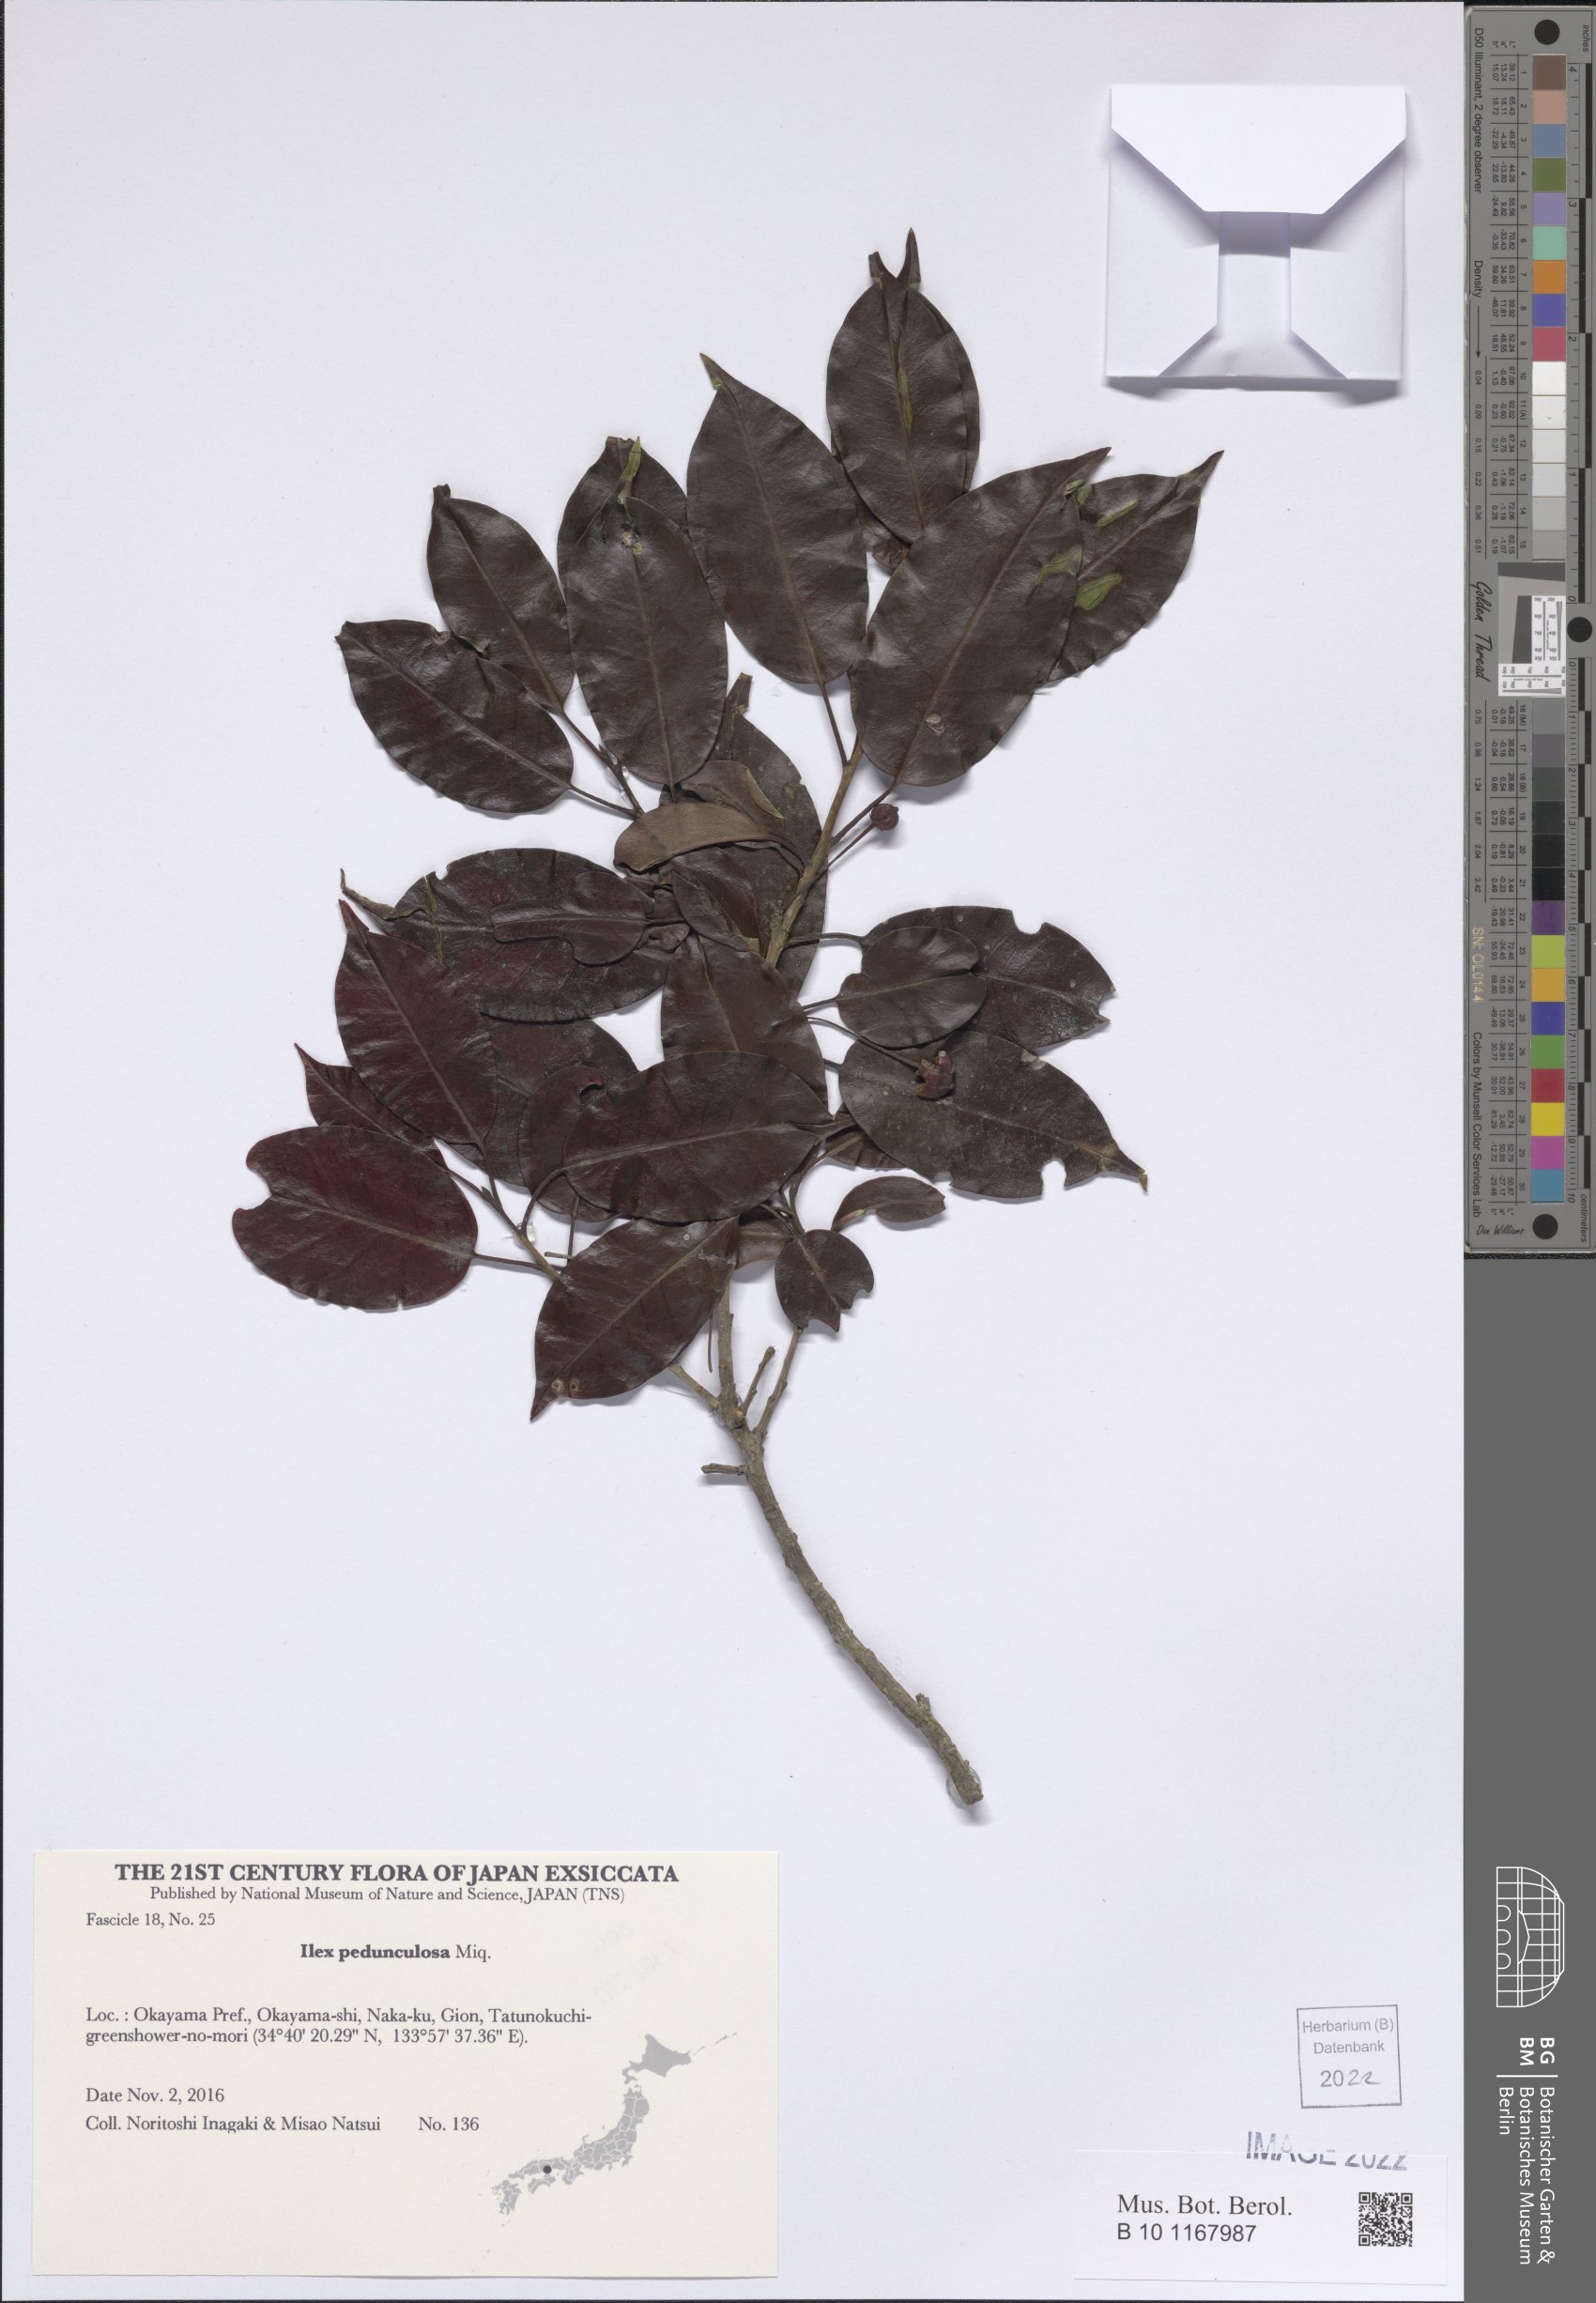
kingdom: Plantae
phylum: Tracheophyta
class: Magnoliopsida
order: Aquifoliales
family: Aquifoliaceae
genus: Ilex
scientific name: Ilex pedunculosa
